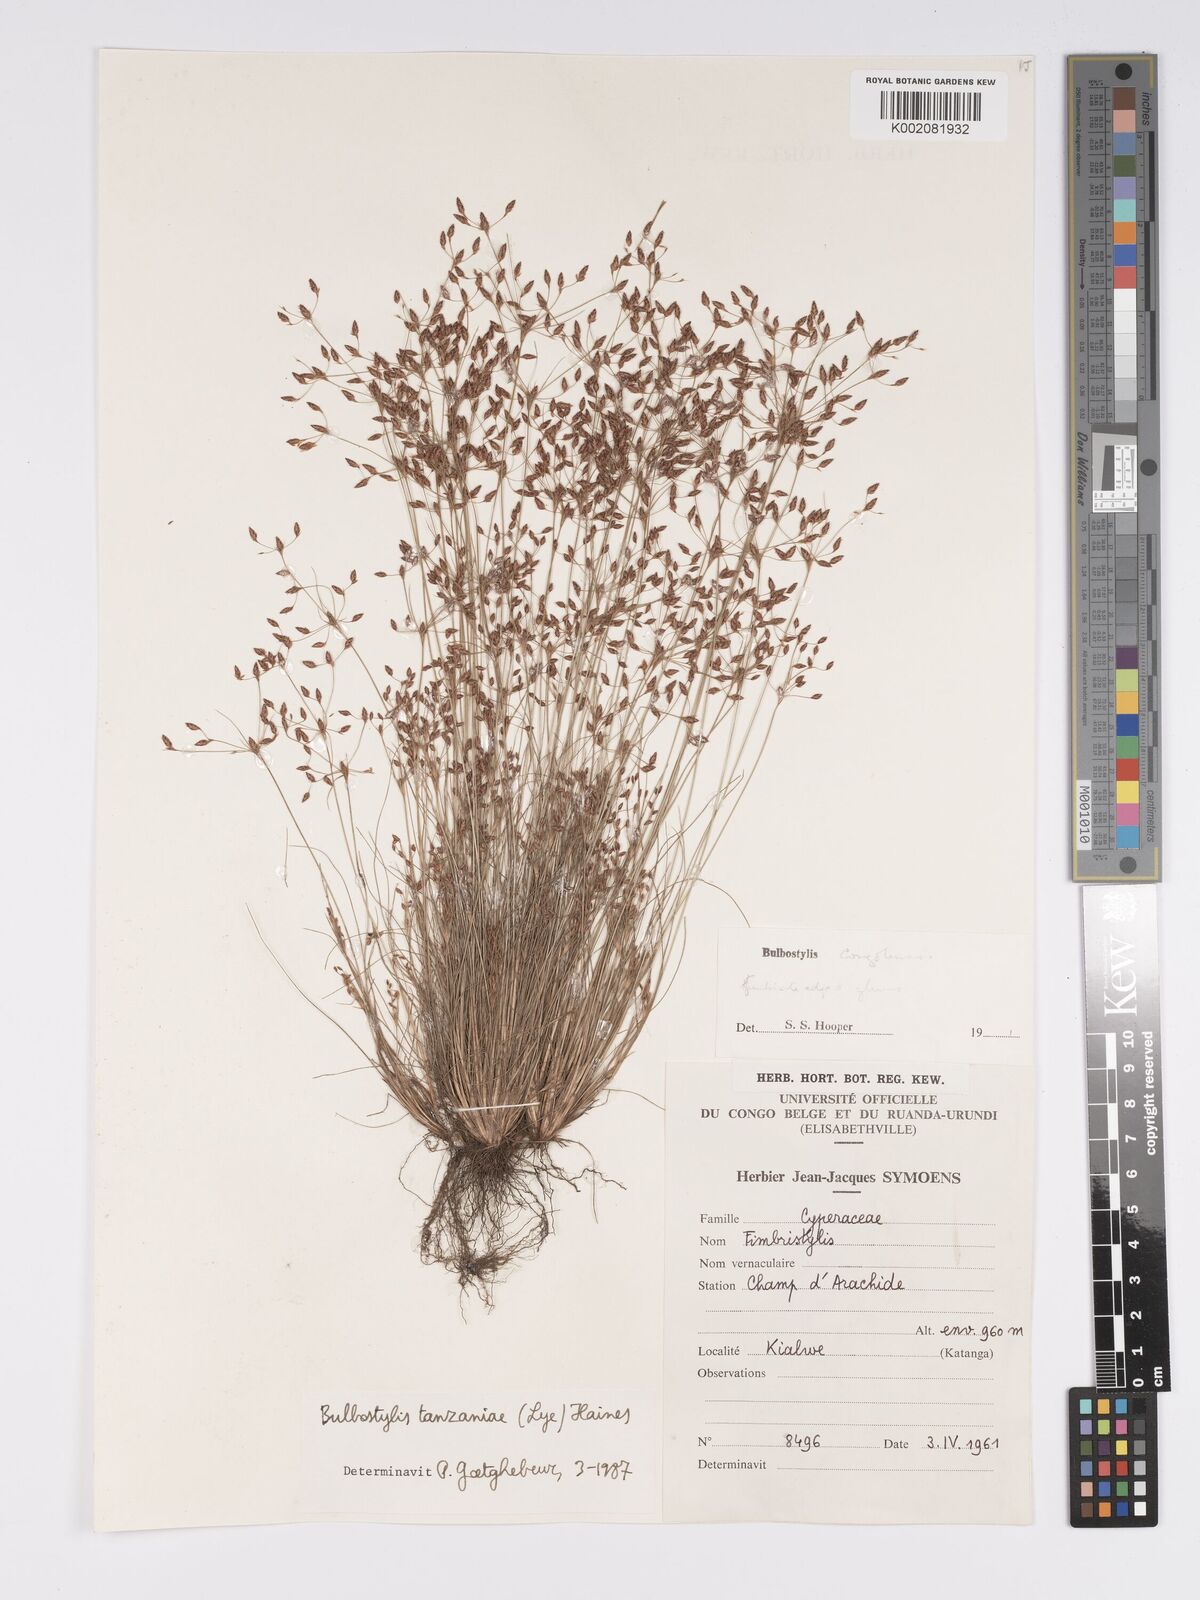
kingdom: Plantae
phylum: Tracheophyta
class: Liliopsida
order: Poales
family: Cyperaceae
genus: Bulbostylis
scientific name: Bulbostylis tanzaniae
